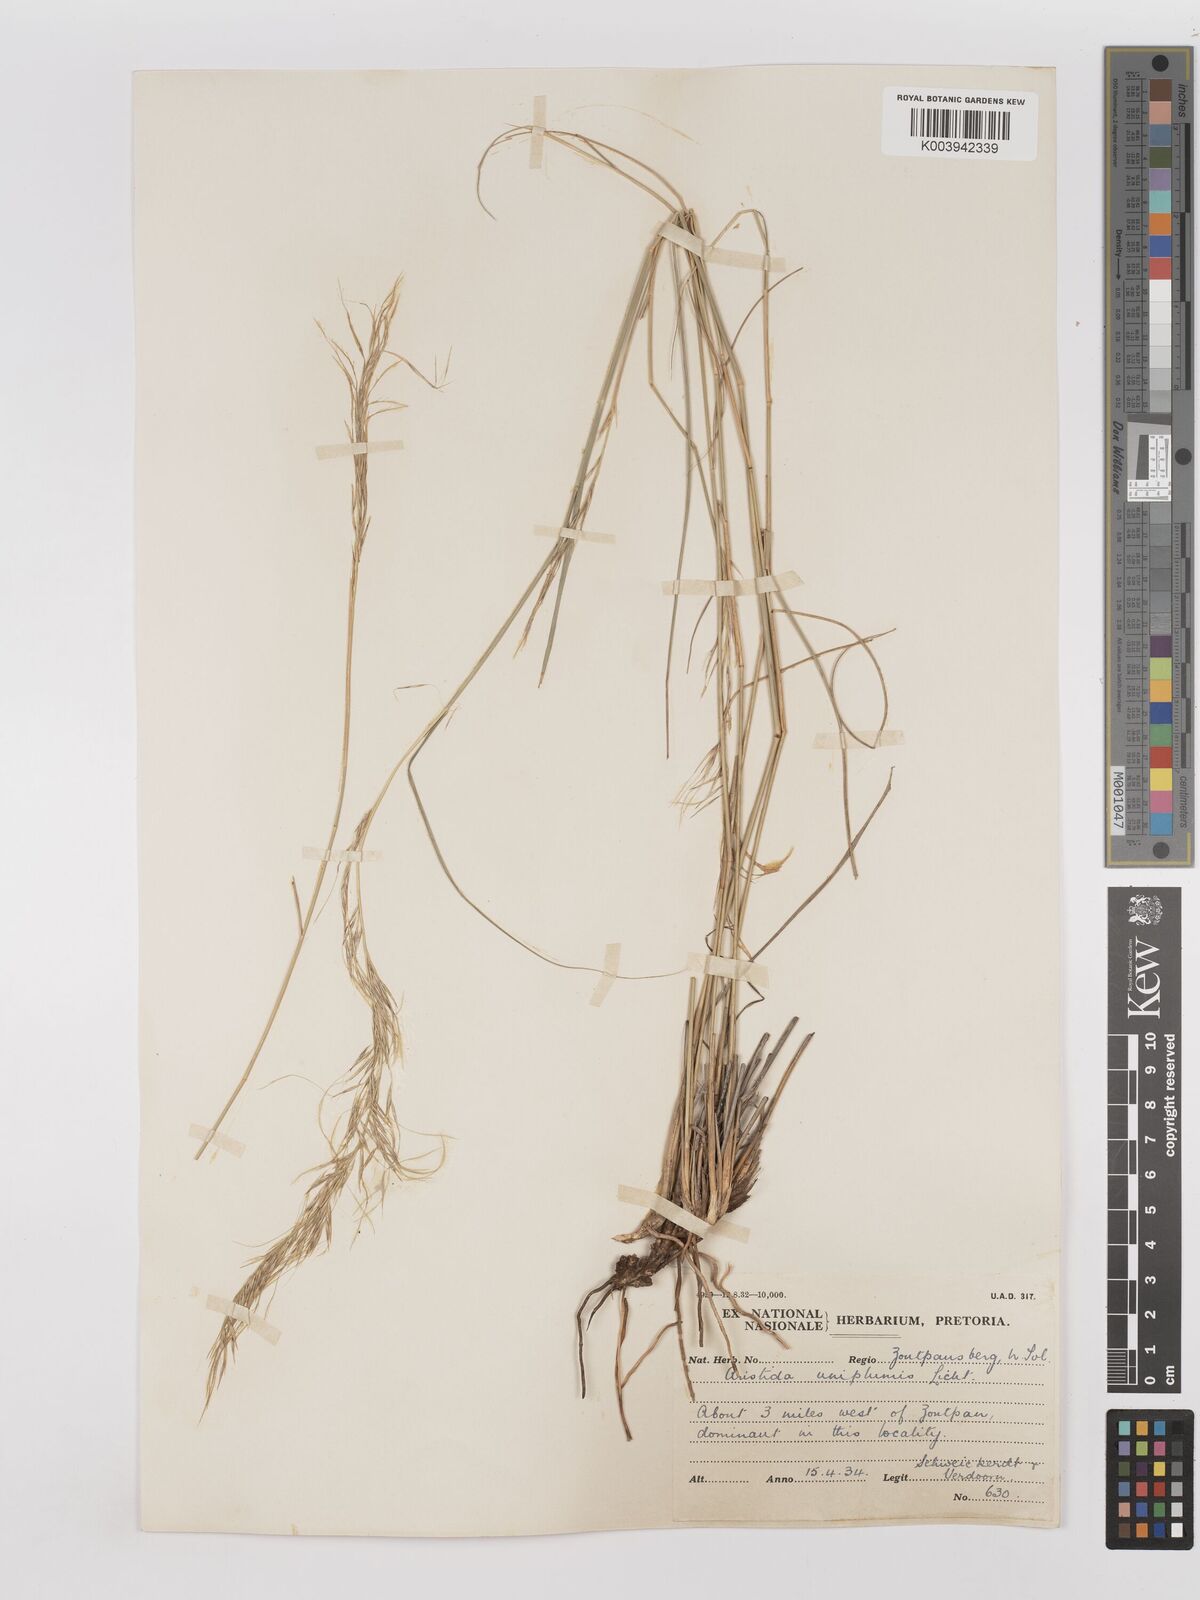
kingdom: Plantae
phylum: Tracheophyta
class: Liliopsida
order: Poales
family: Poaceae
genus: Stipagrostis
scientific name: Stipagrostis uniplumis
